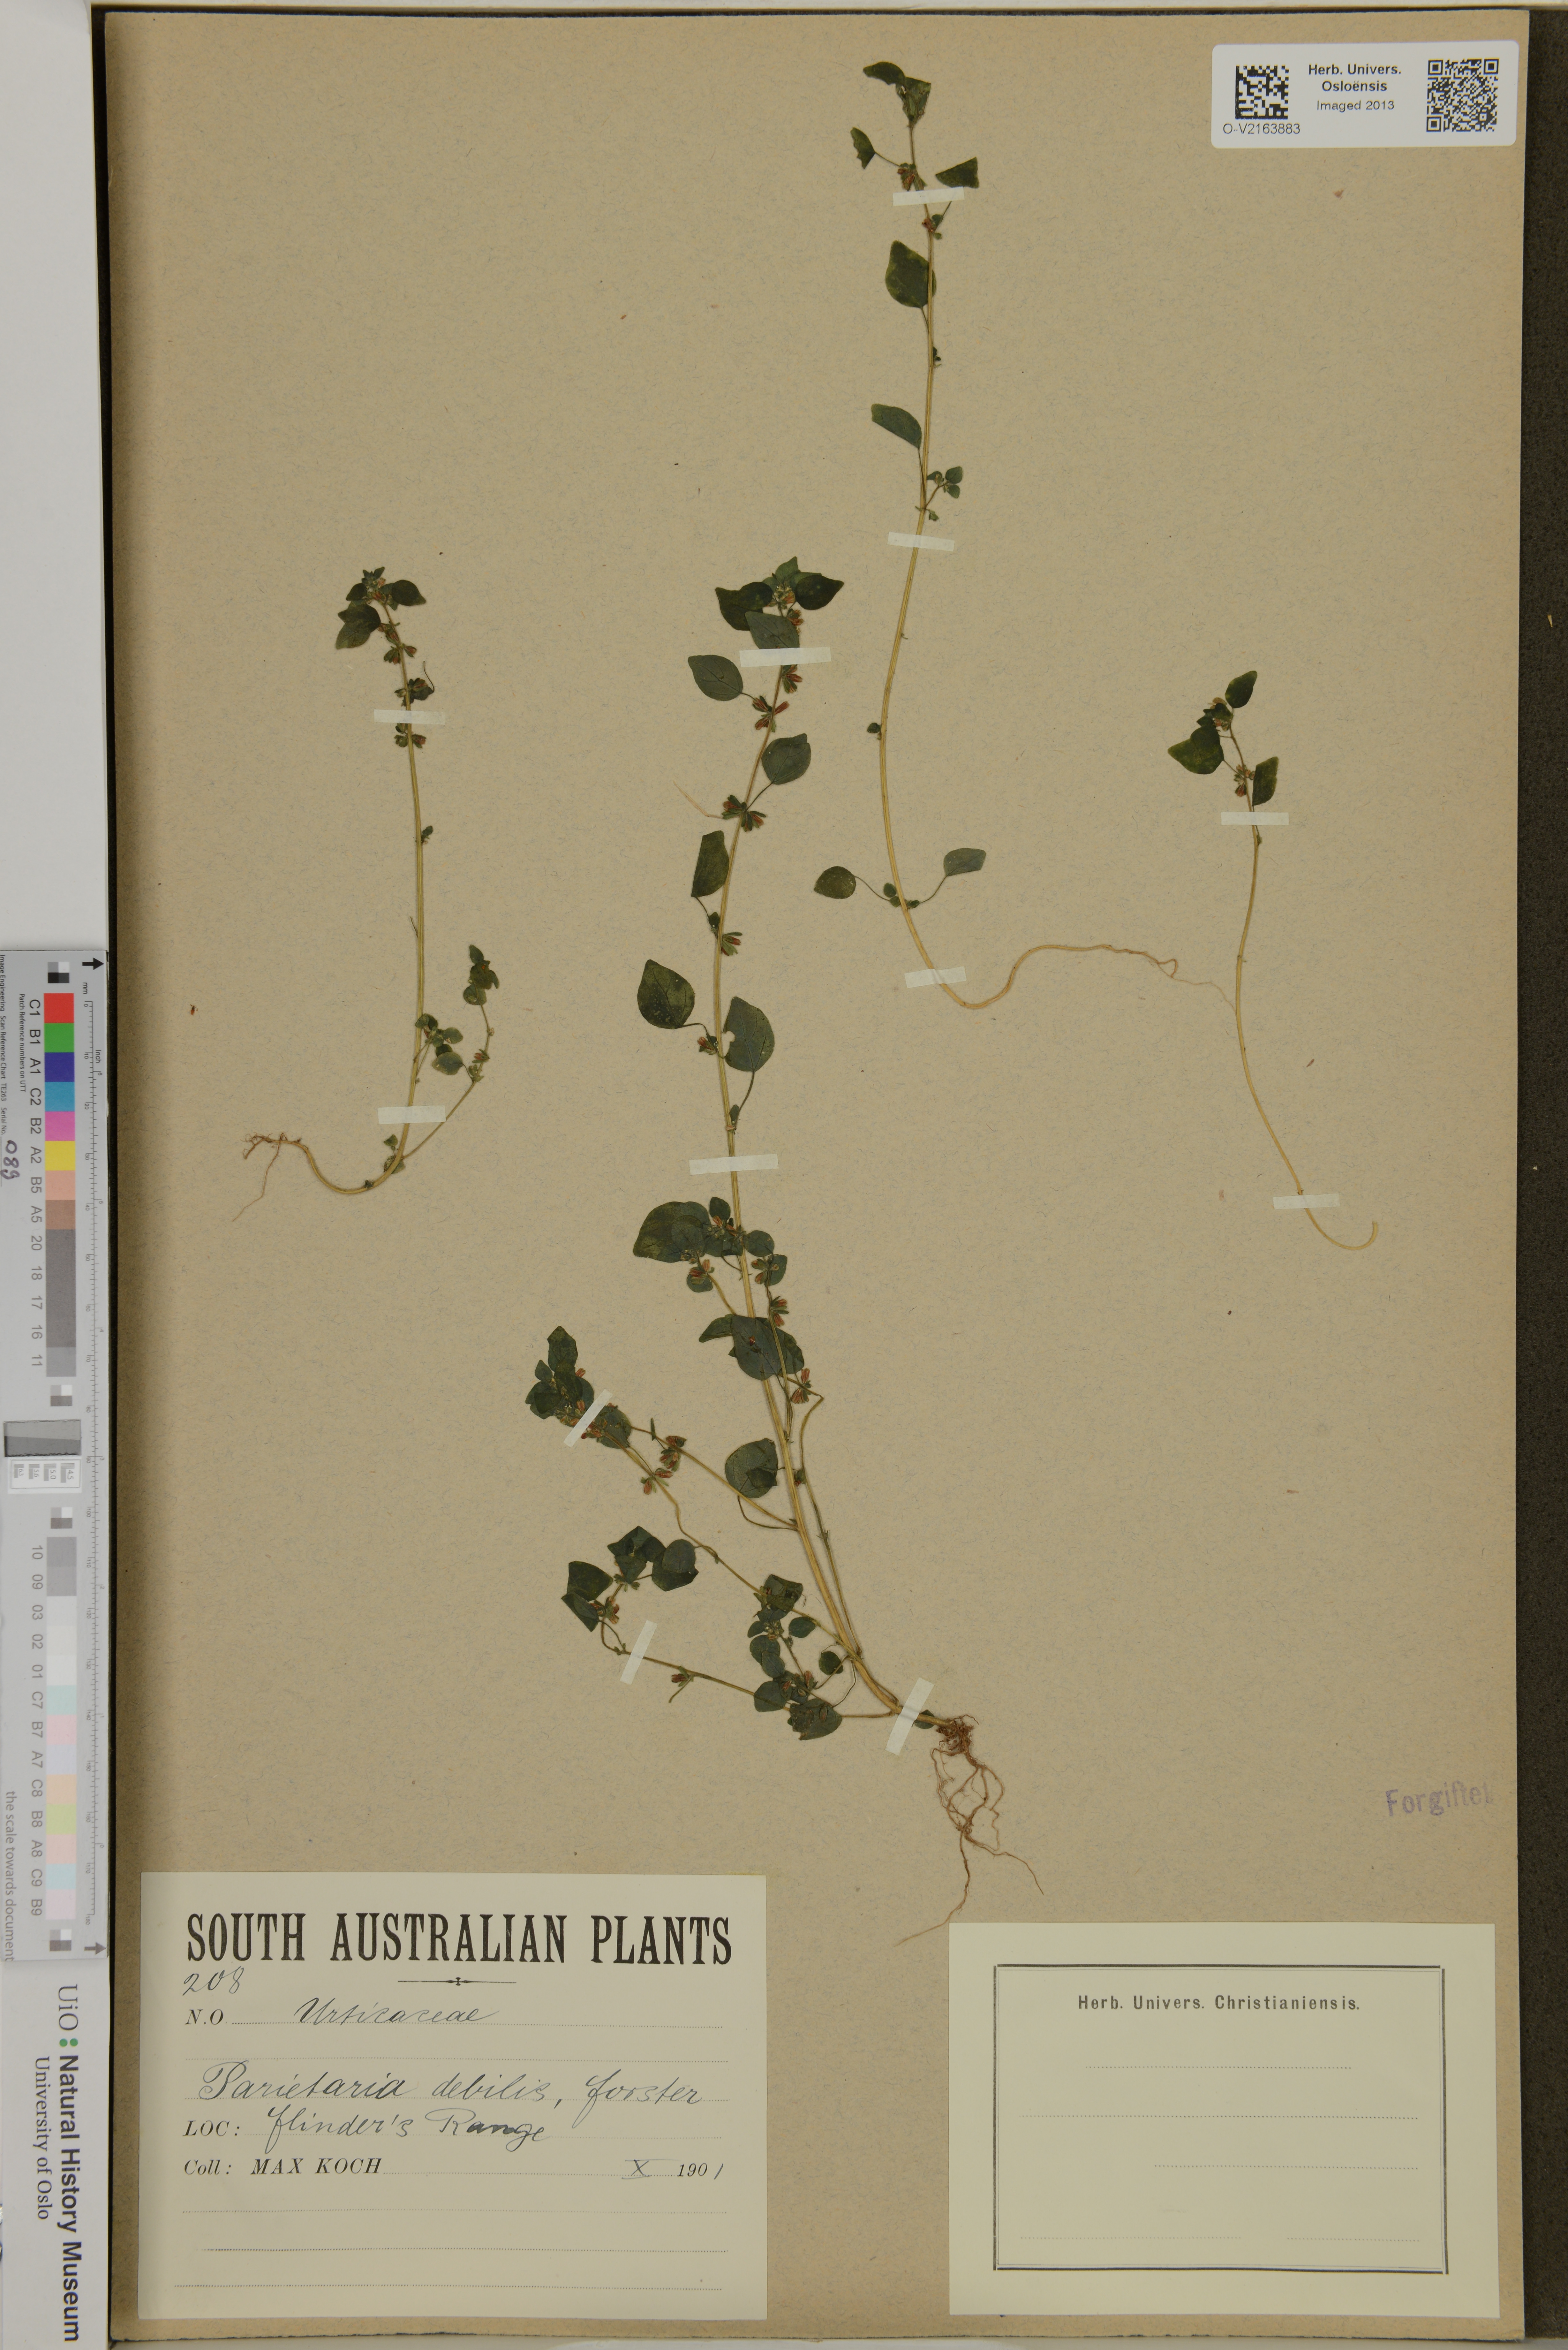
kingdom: Plantae
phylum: Tracheophyta
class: Magnoliopsida
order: Rosales
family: Urticaceae
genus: Parietaria
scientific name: Parietaria debilis
